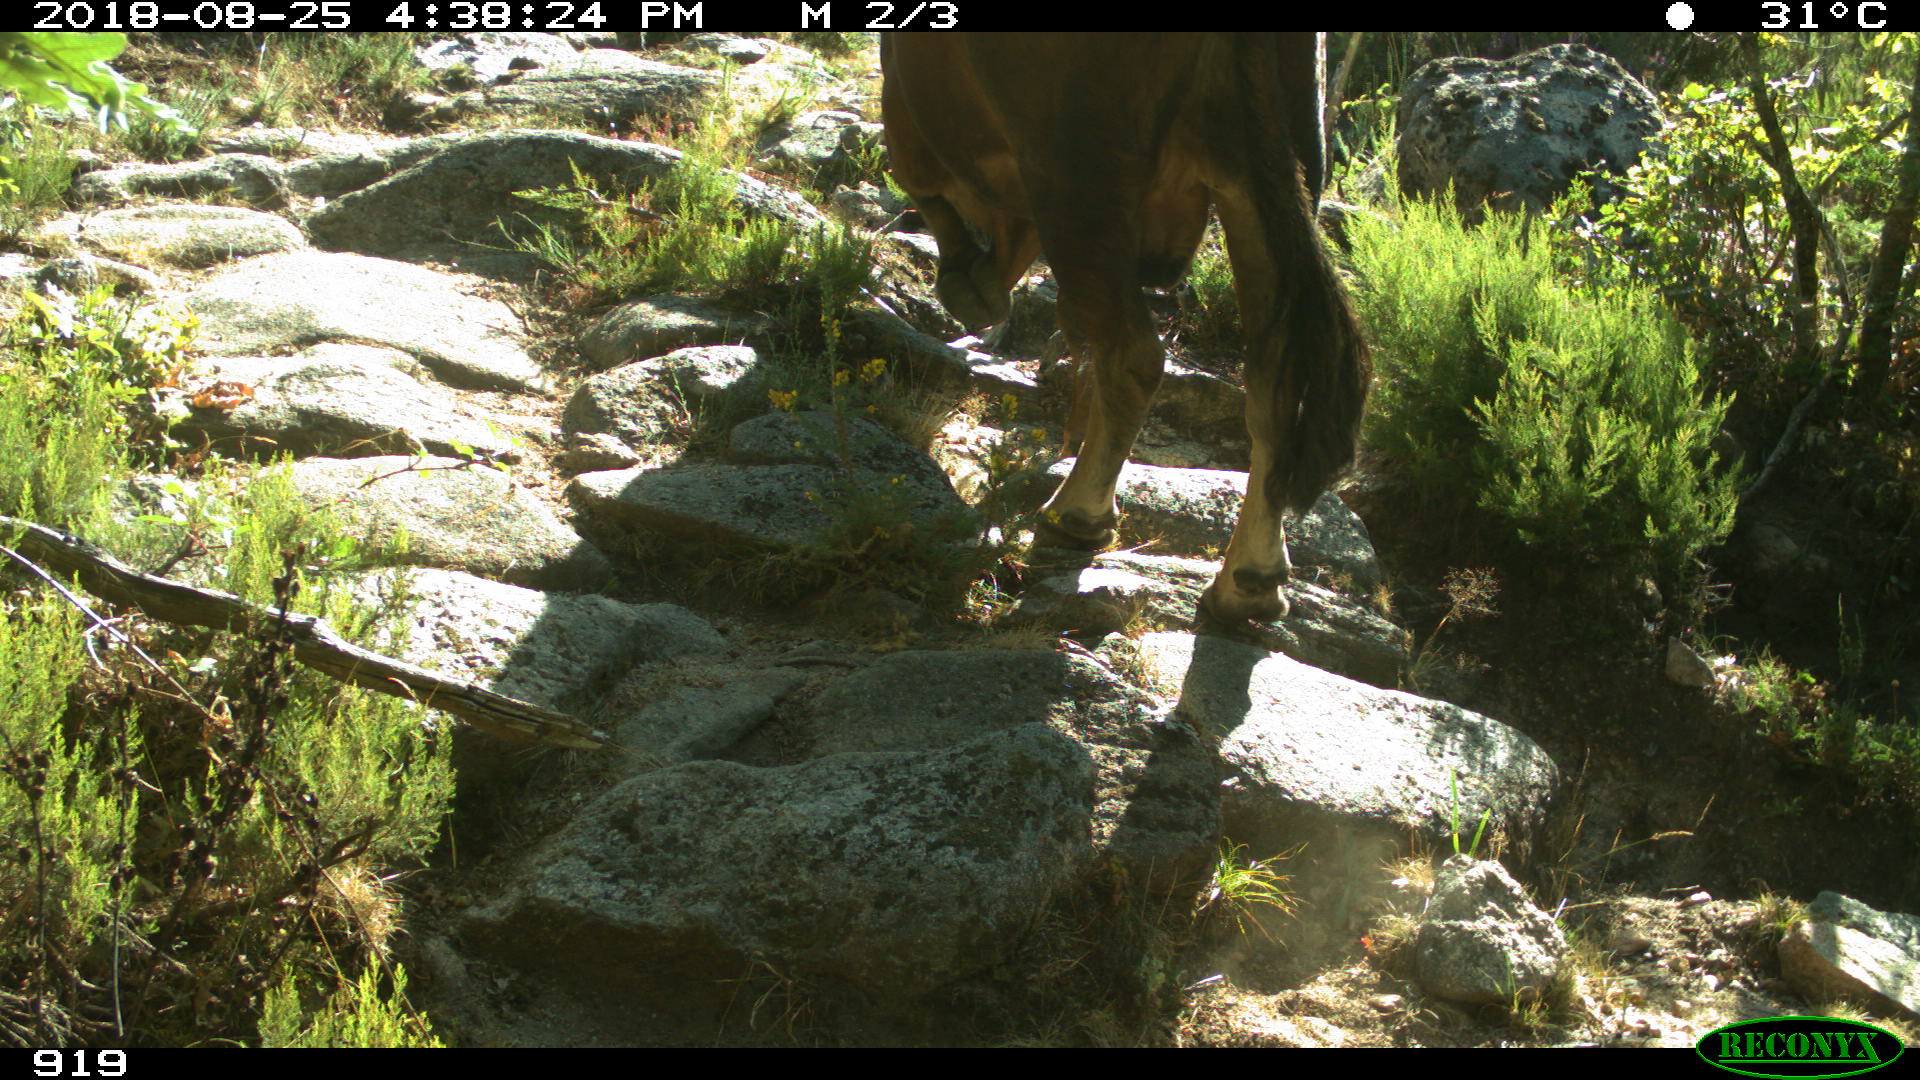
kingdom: Animalia
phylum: Chordata
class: Mammalia
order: Artiodactyla
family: Bovidae
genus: Bos
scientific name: Bos taurus
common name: Domesticated cattle
